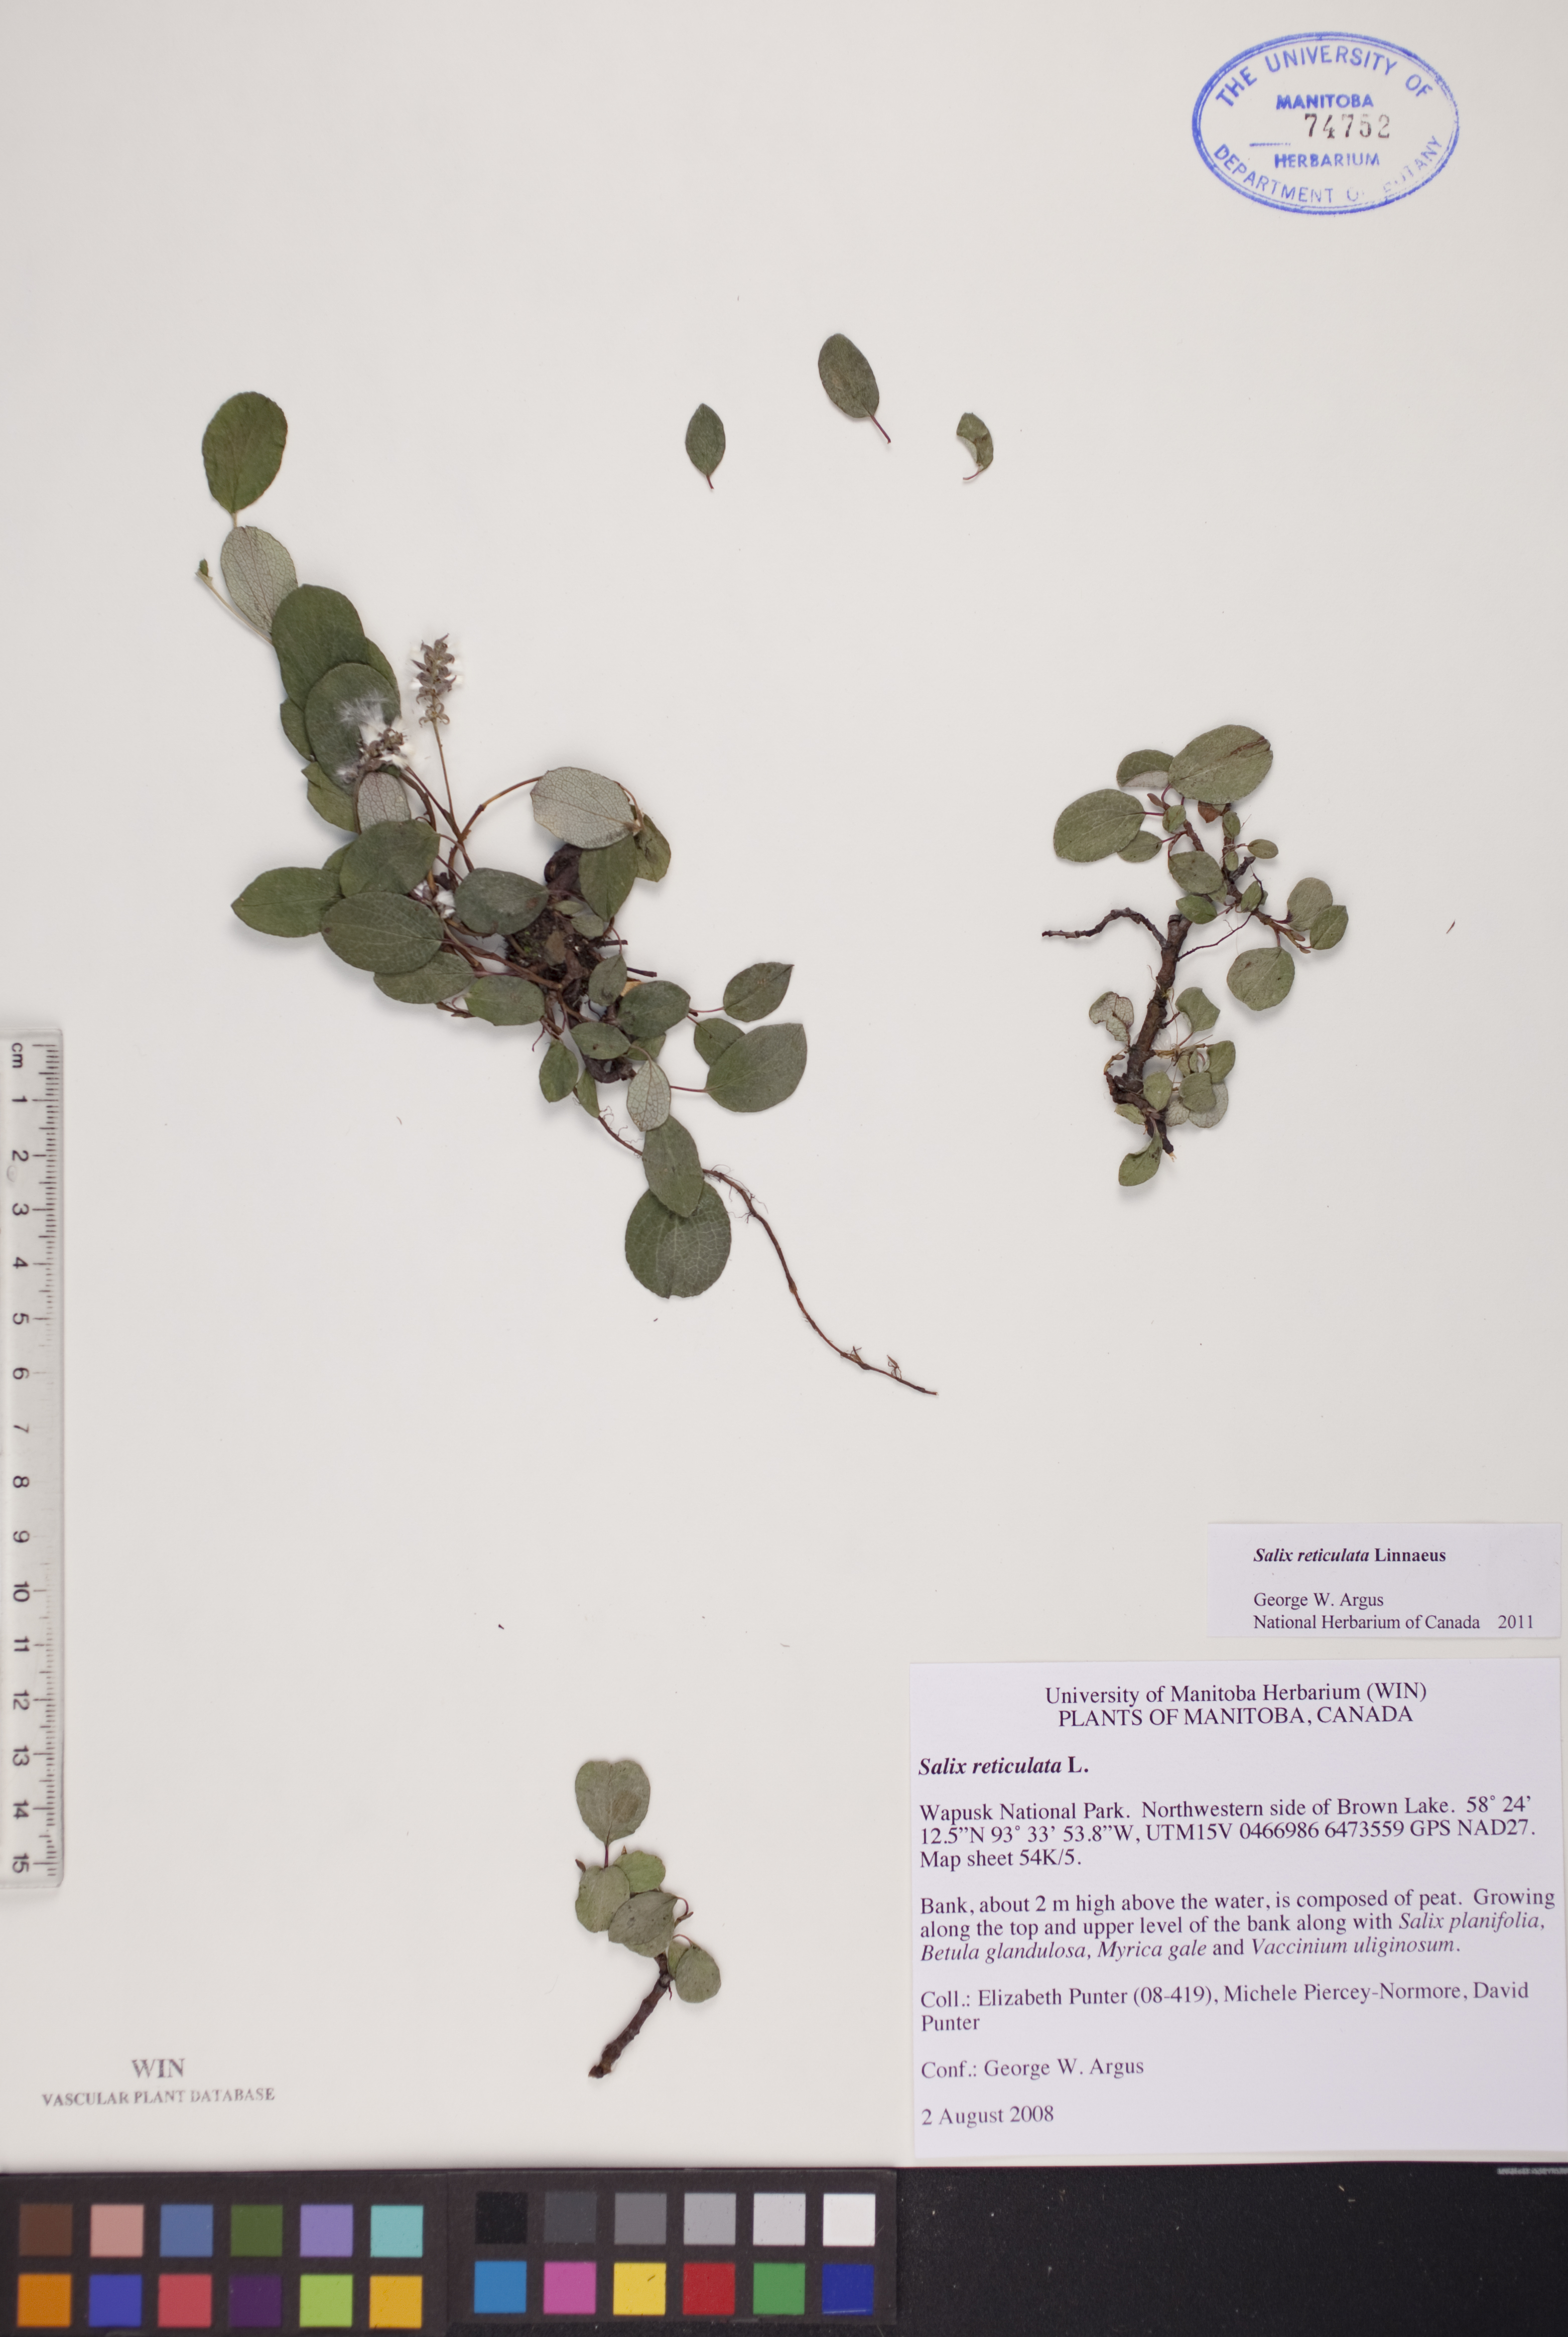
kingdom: Plantae
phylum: Tracheophyta
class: Magnoliopsida
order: Malpighiales
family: Salicaceae
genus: Salix
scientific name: Salix reticulata
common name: Net-leaved willow
